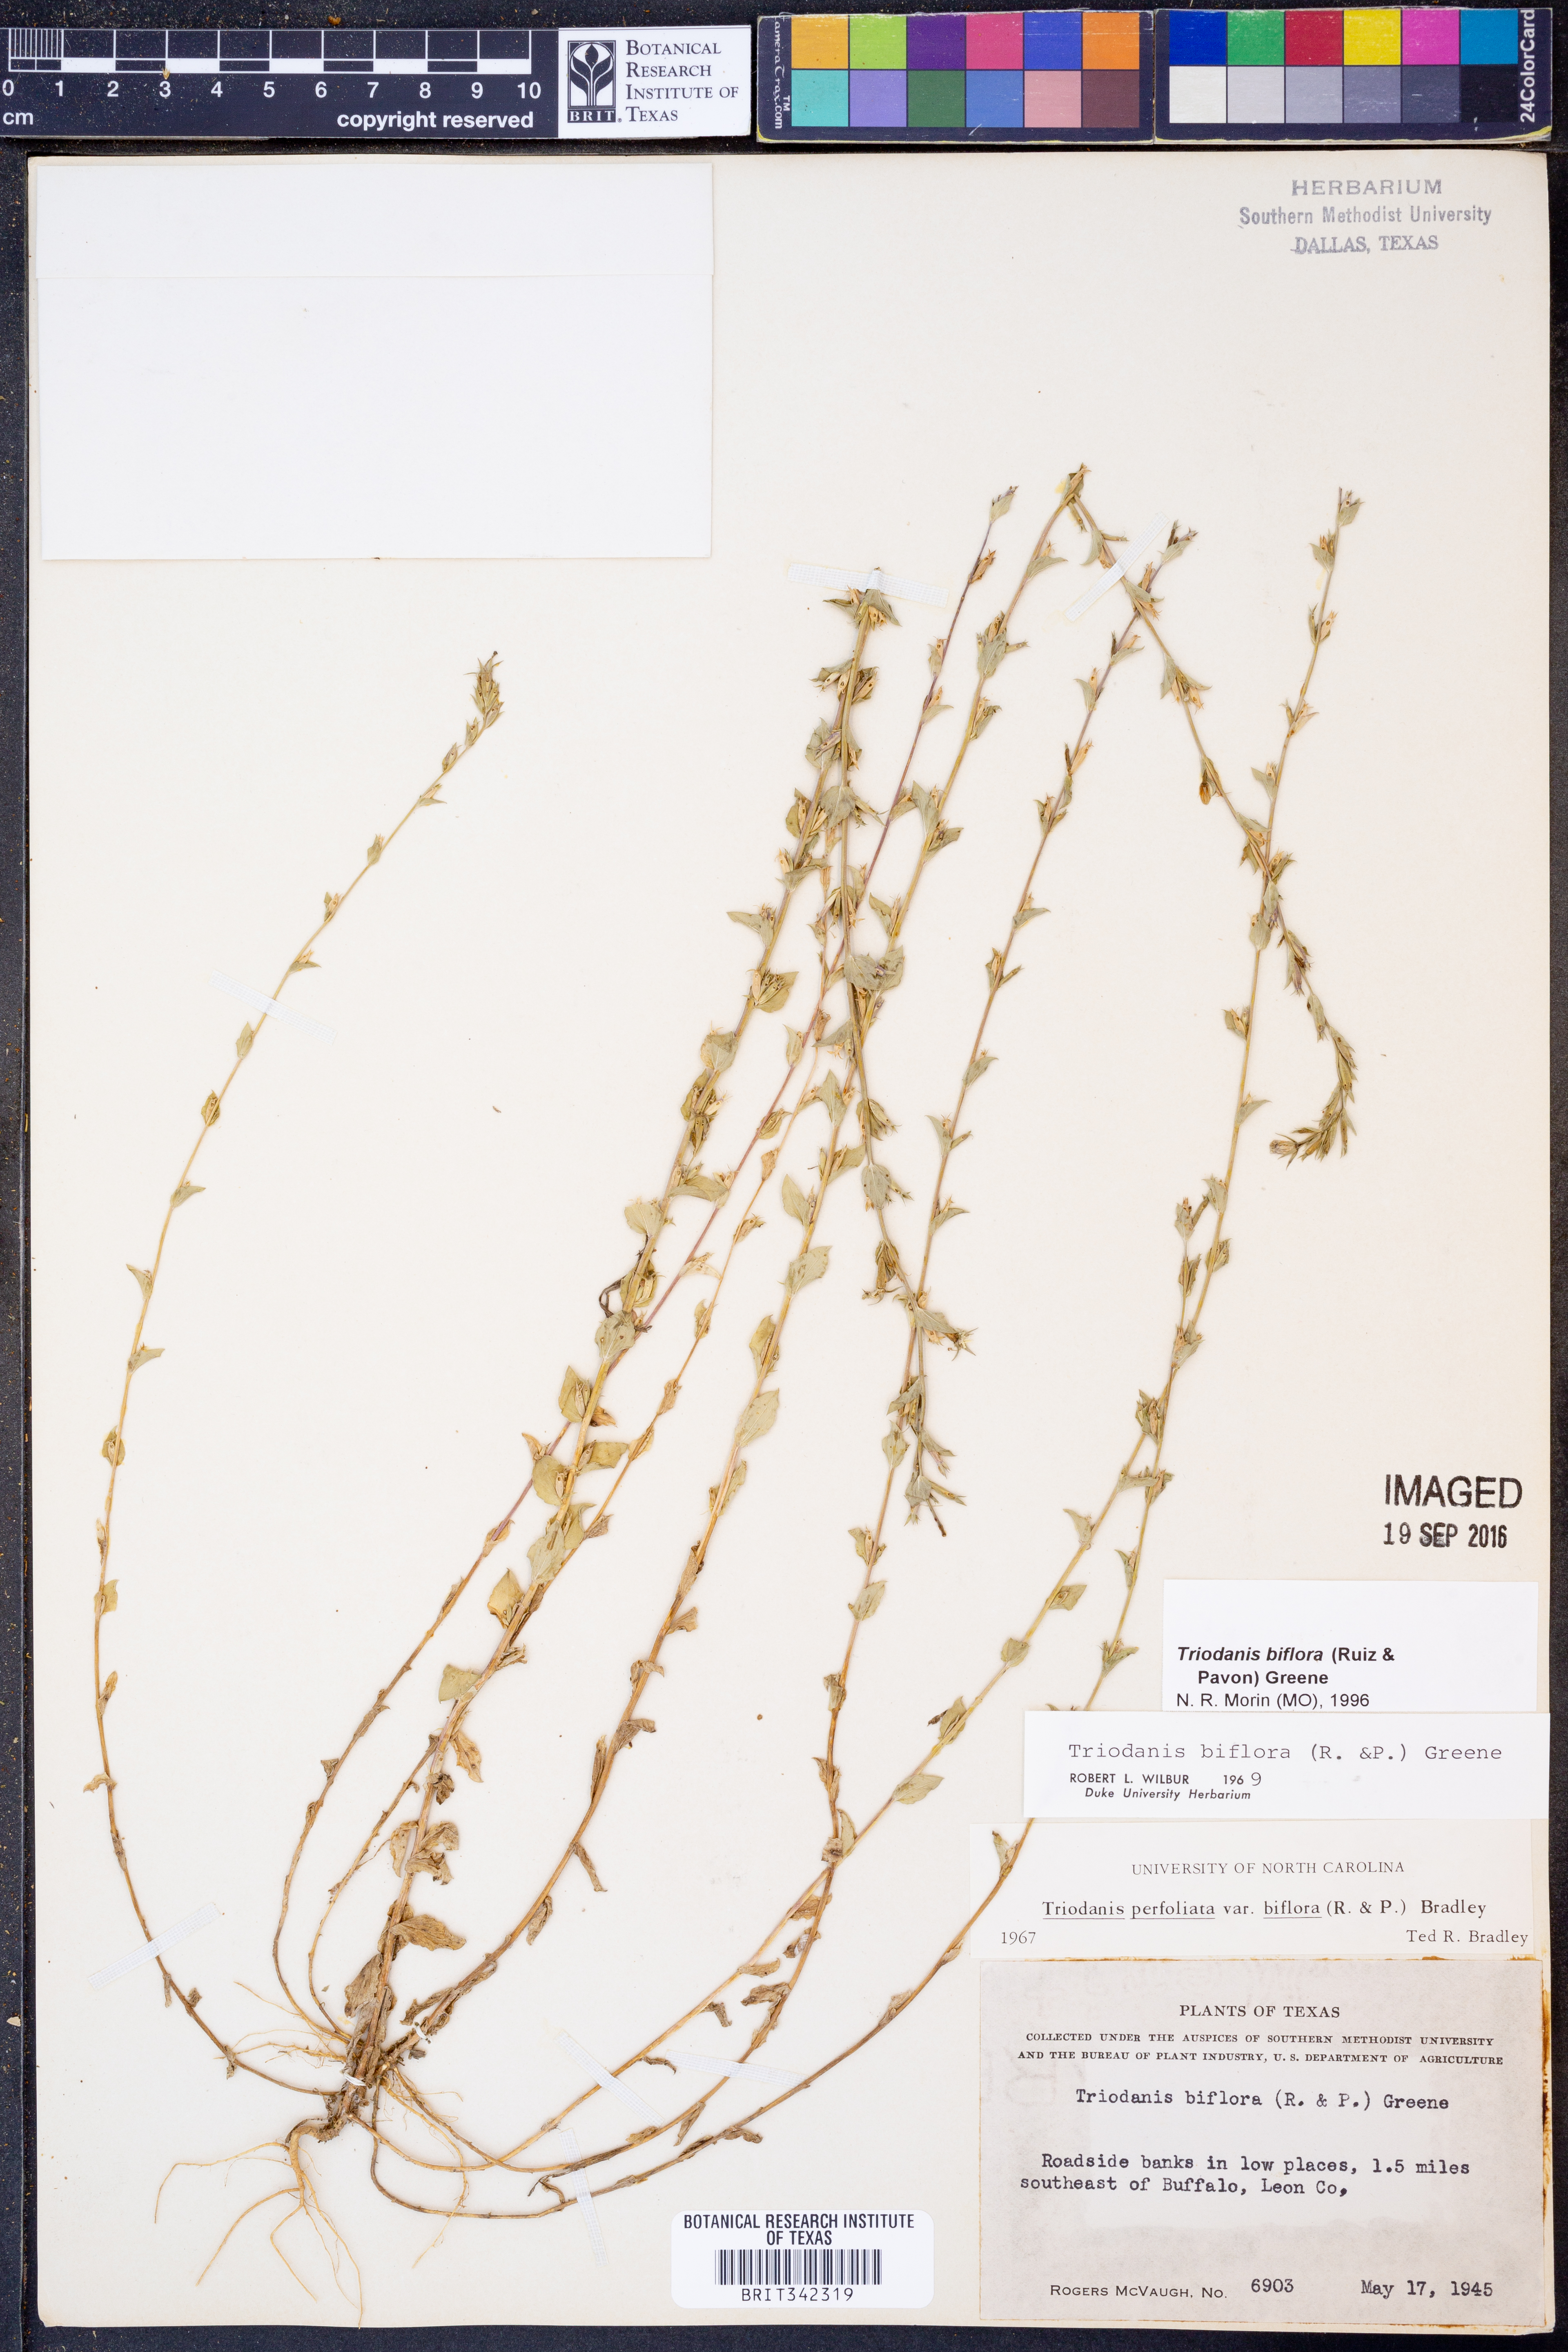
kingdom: Plantae
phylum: Tracheophyta
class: Magnoliopsida
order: Asterales
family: Campanulaceae
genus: Triodanis
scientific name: Triodanis perfoliata
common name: Clasping venus' looking-glass
